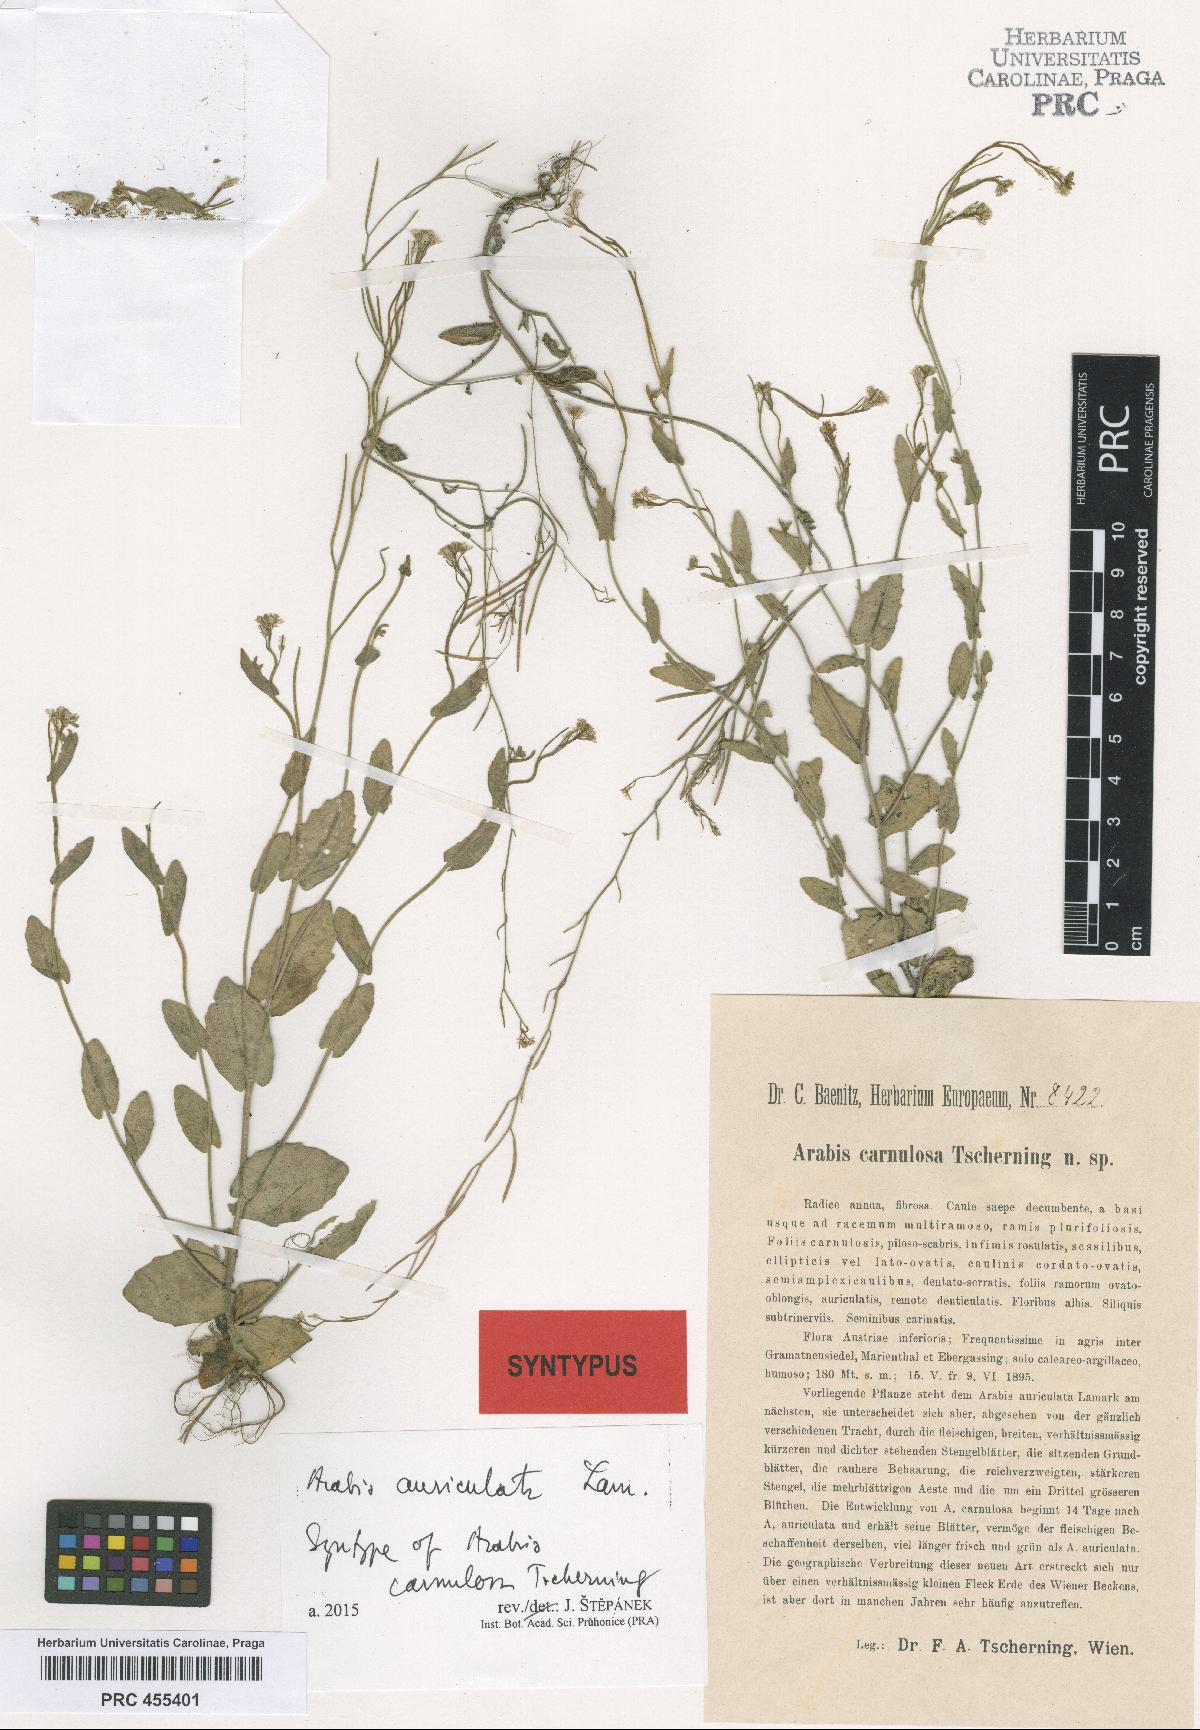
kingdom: Plantae
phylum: Tracheophyta
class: Magnoliopsida
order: Brassicales
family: Brassicaceae
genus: Arabis
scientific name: Arabis auriculata
